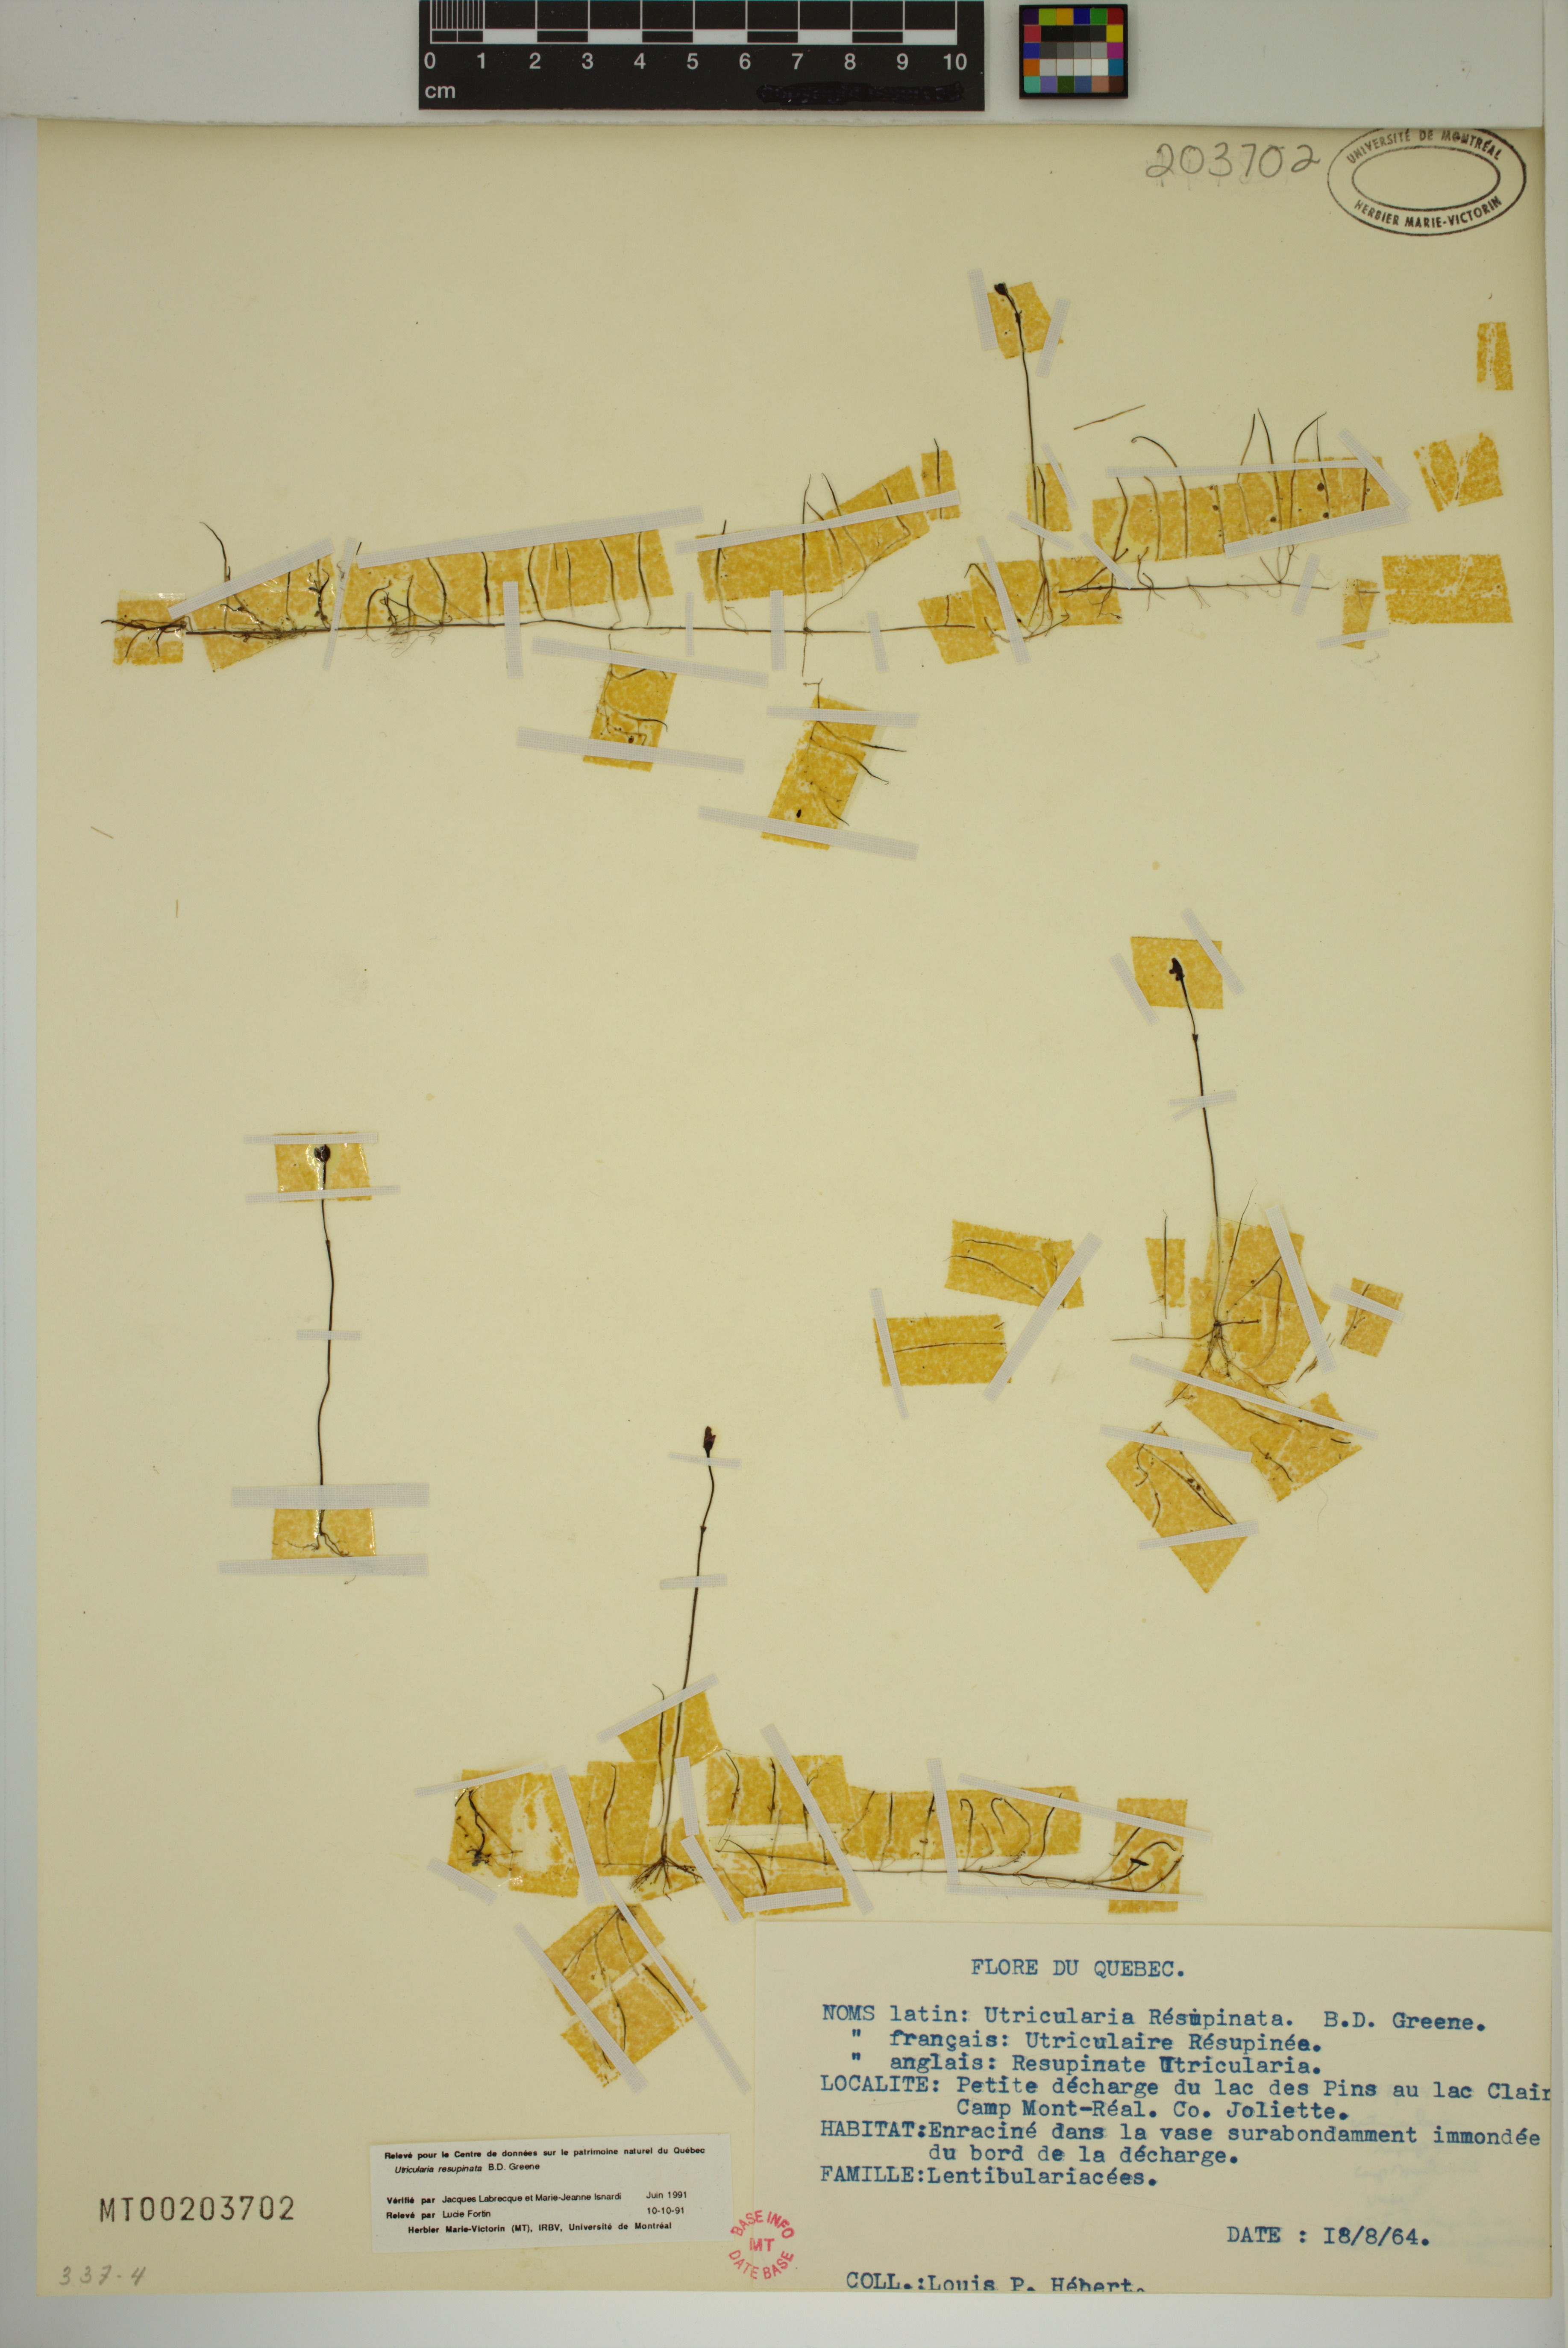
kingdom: Plantae
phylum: Tracheophyta
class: Magnoliopsida
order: Lamiales
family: Lentibulariaceae
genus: Utricularia
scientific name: Utricularia resupinata
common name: Northeastern bladderwort
